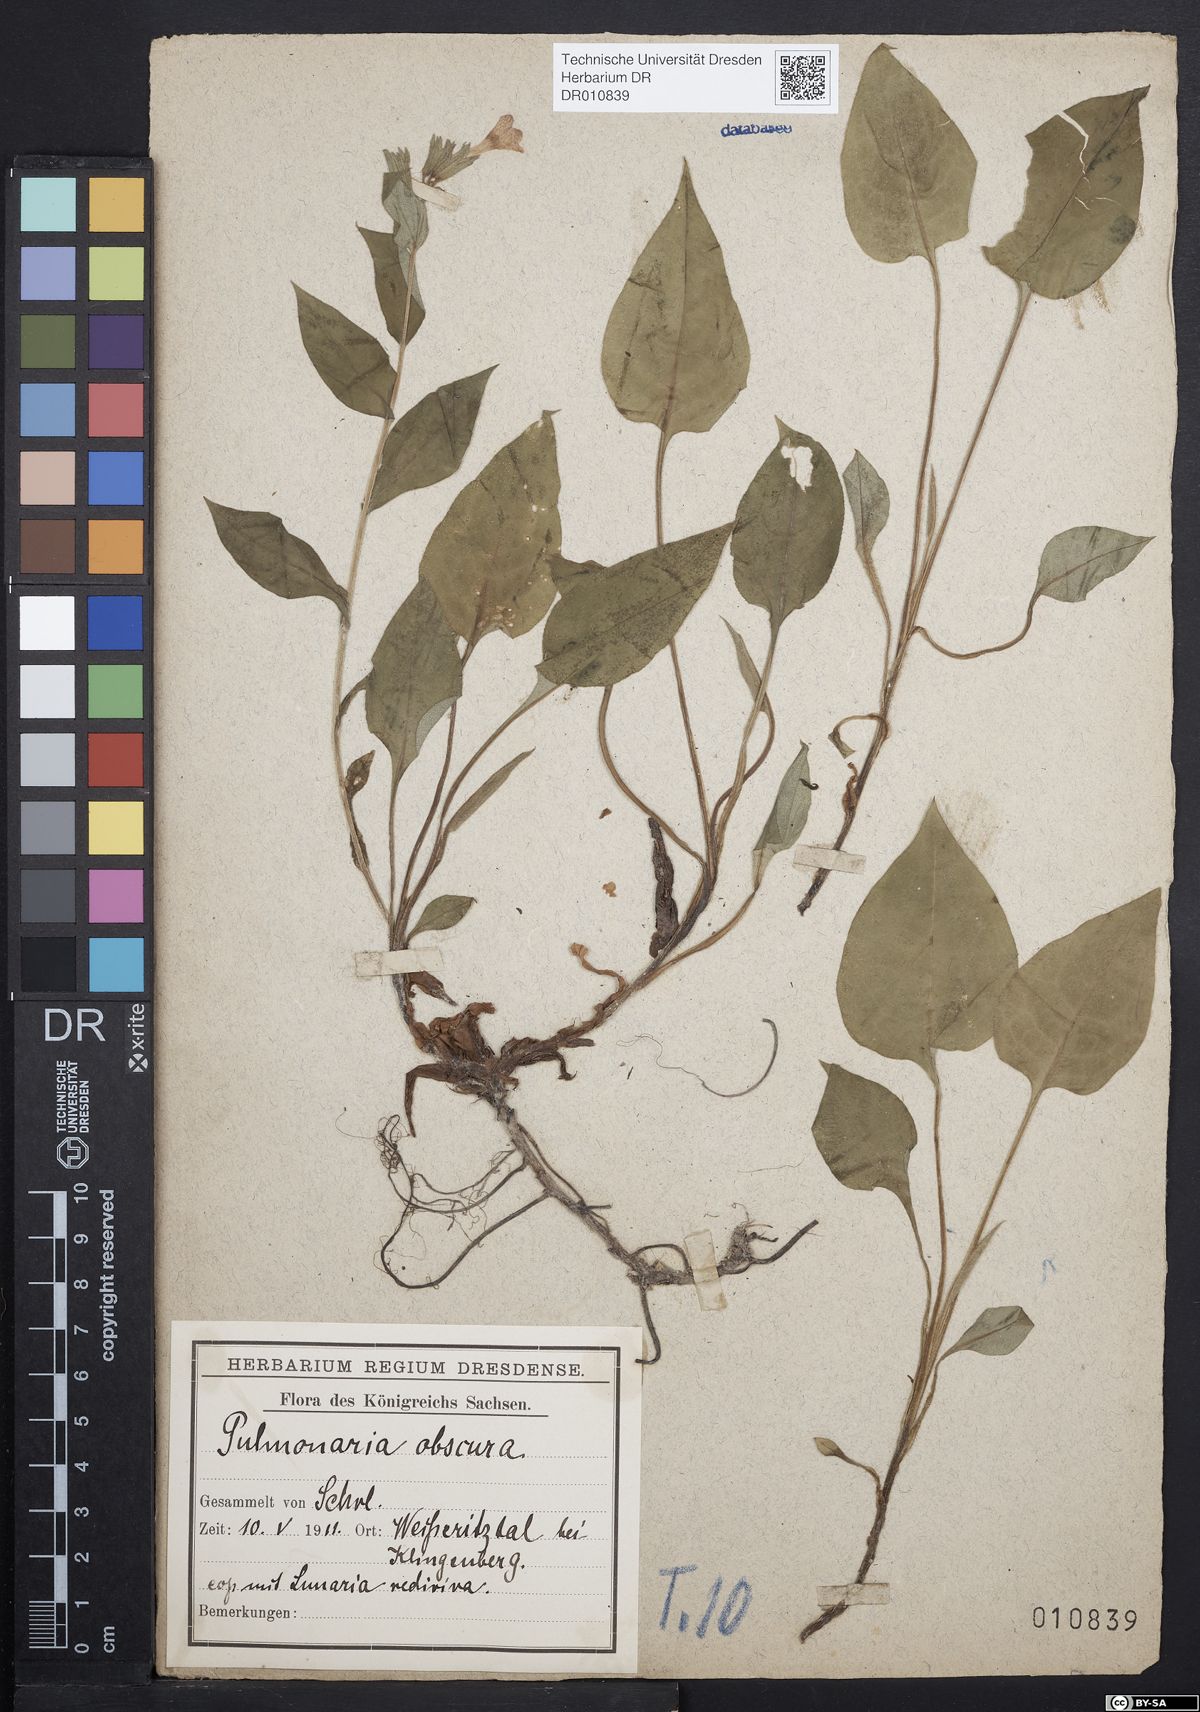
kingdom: Plantae
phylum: Tracheophyta
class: Magnoliopsida
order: Boraginales
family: Boraginaceae
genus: Pulmonaria
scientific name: Pulmonaria obscura
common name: Suffolk lungwort
